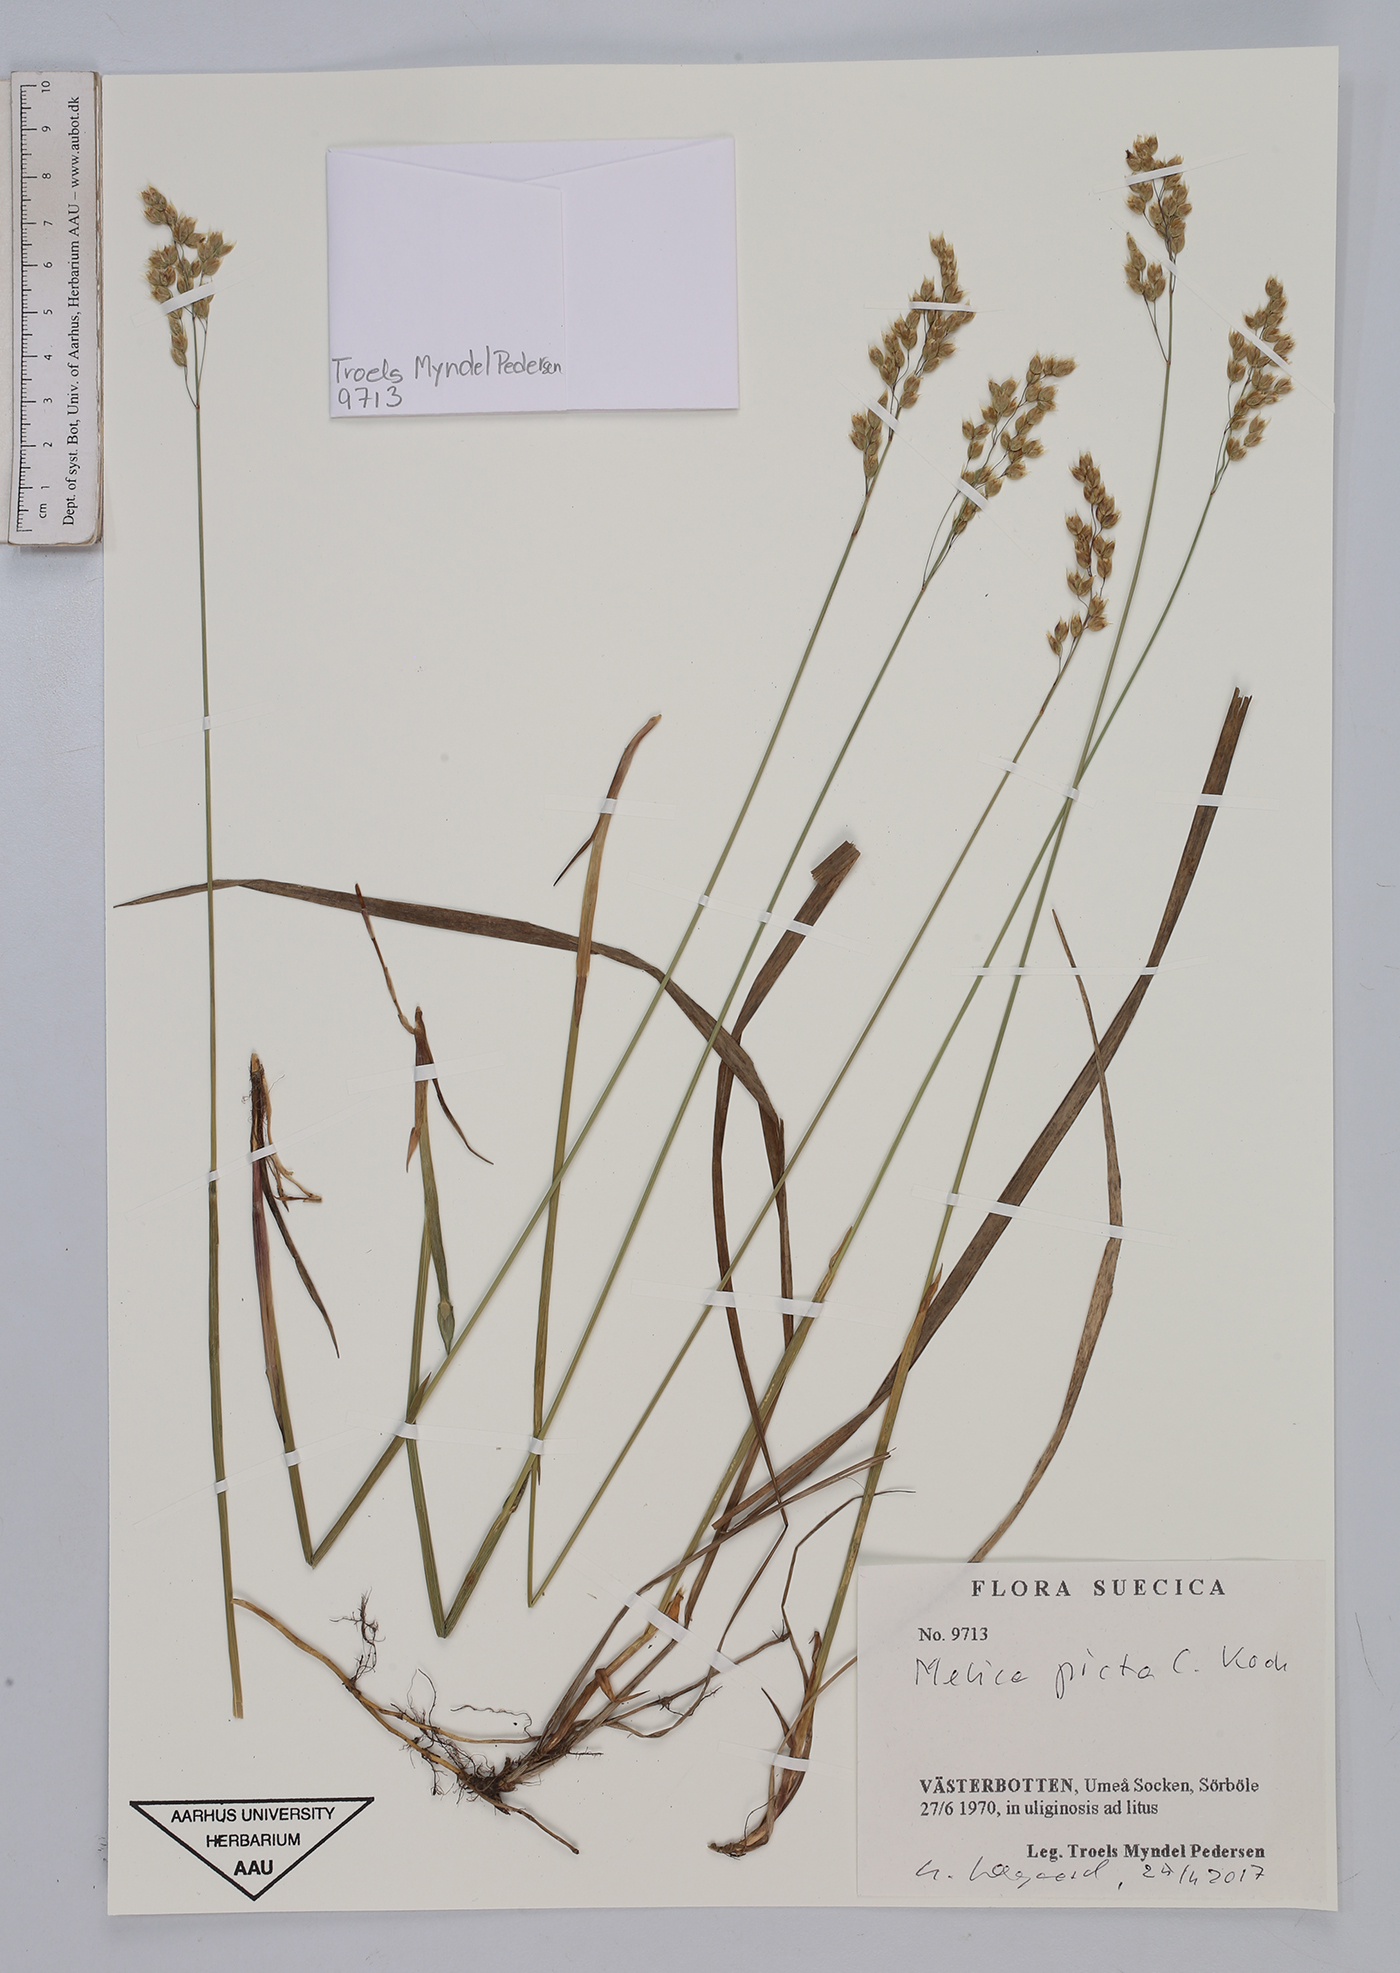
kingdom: Plantae
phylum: Tracheophyta
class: Liliopsida
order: Poales
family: Poaceae
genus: Melica
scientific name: Melica picta
